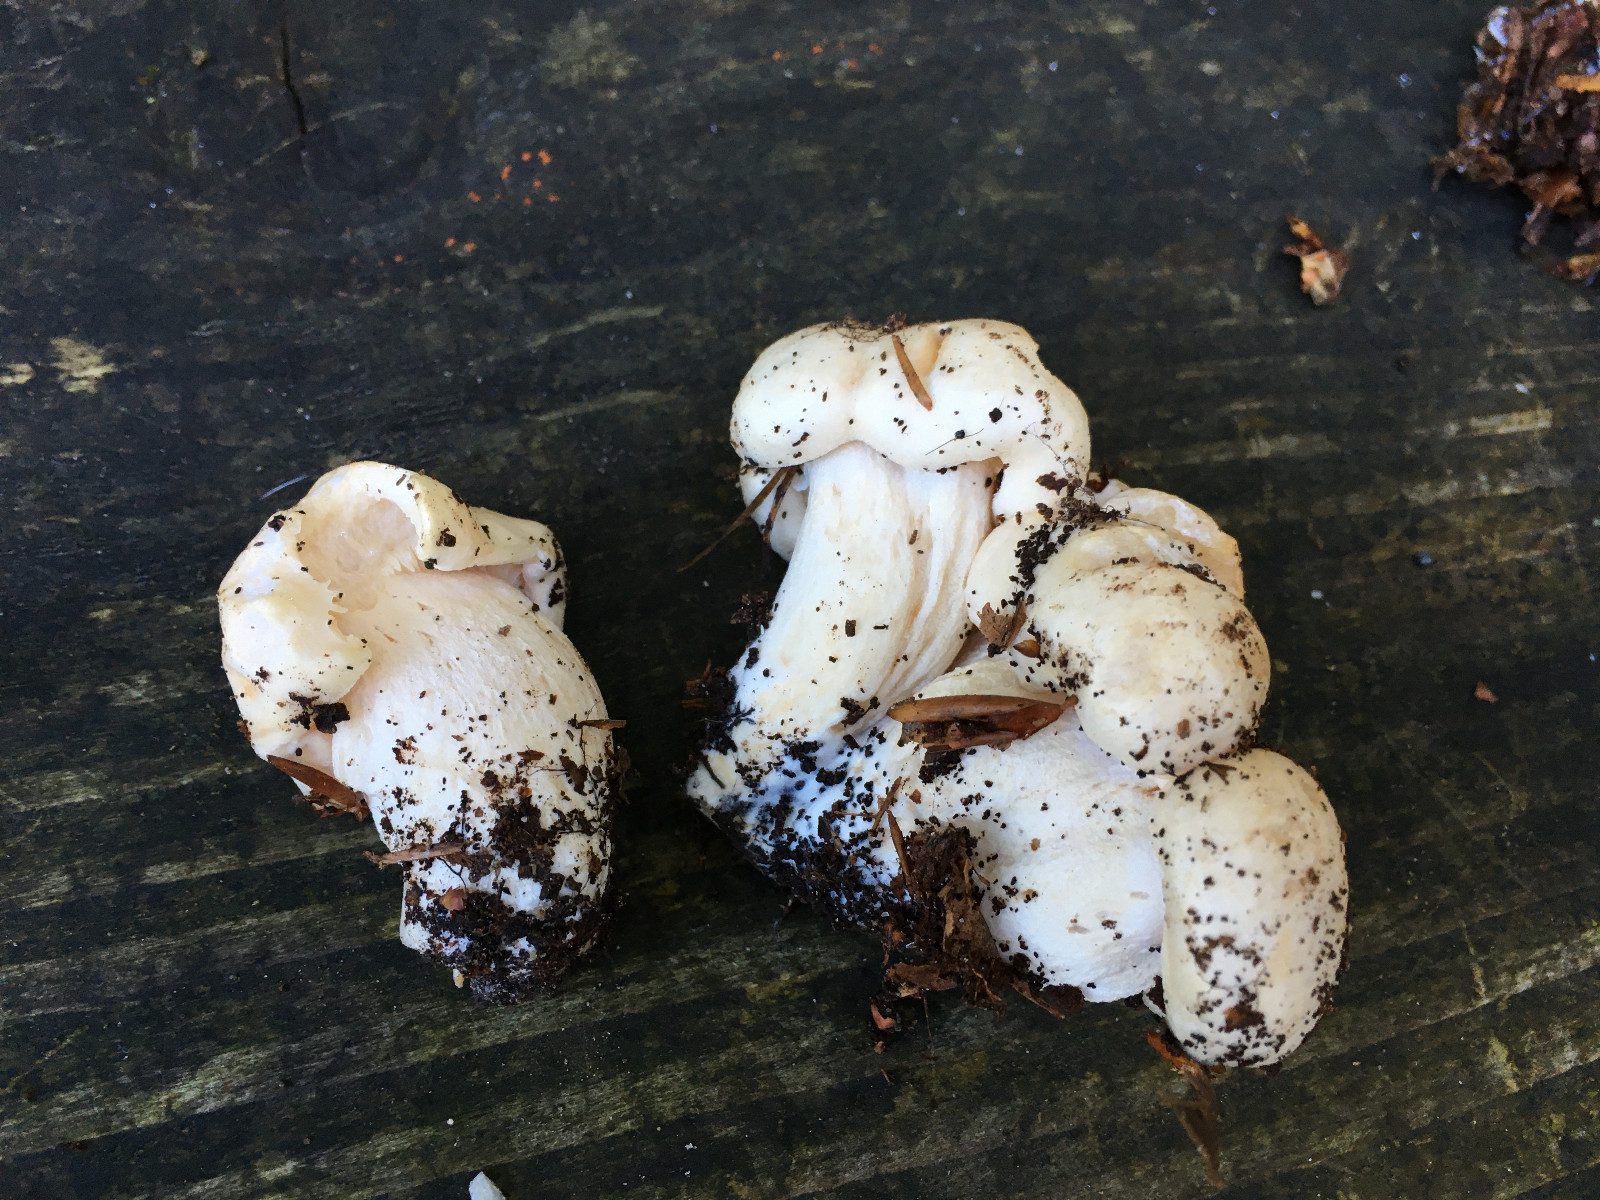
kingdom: Fungi
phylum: Basidiomycota
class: Agaricomycetes
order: Agaricales
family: Hygrophoraceae
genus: Hygrophorus
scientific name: Hygrophorus penarius
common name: spiselig sneglehat
